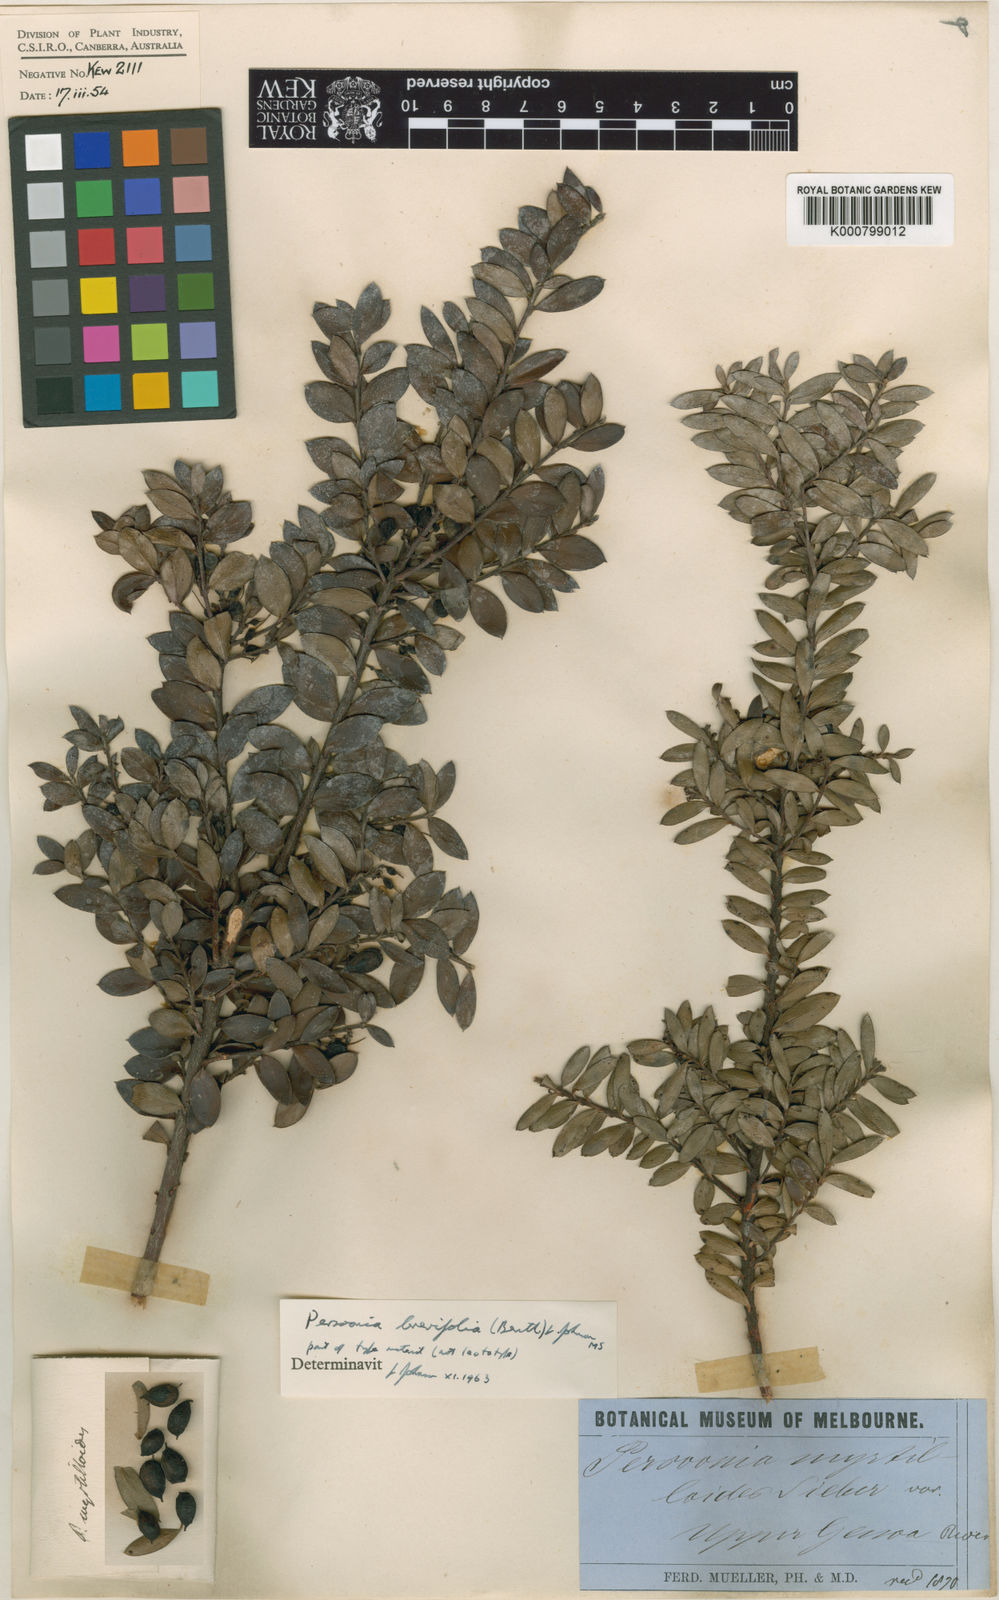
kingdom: Plantae
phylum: Tracheophyta
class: Magnoliopsida
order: Proteales
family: Proteaceae
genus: Persoonia
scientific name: Persoonia brevifolia
